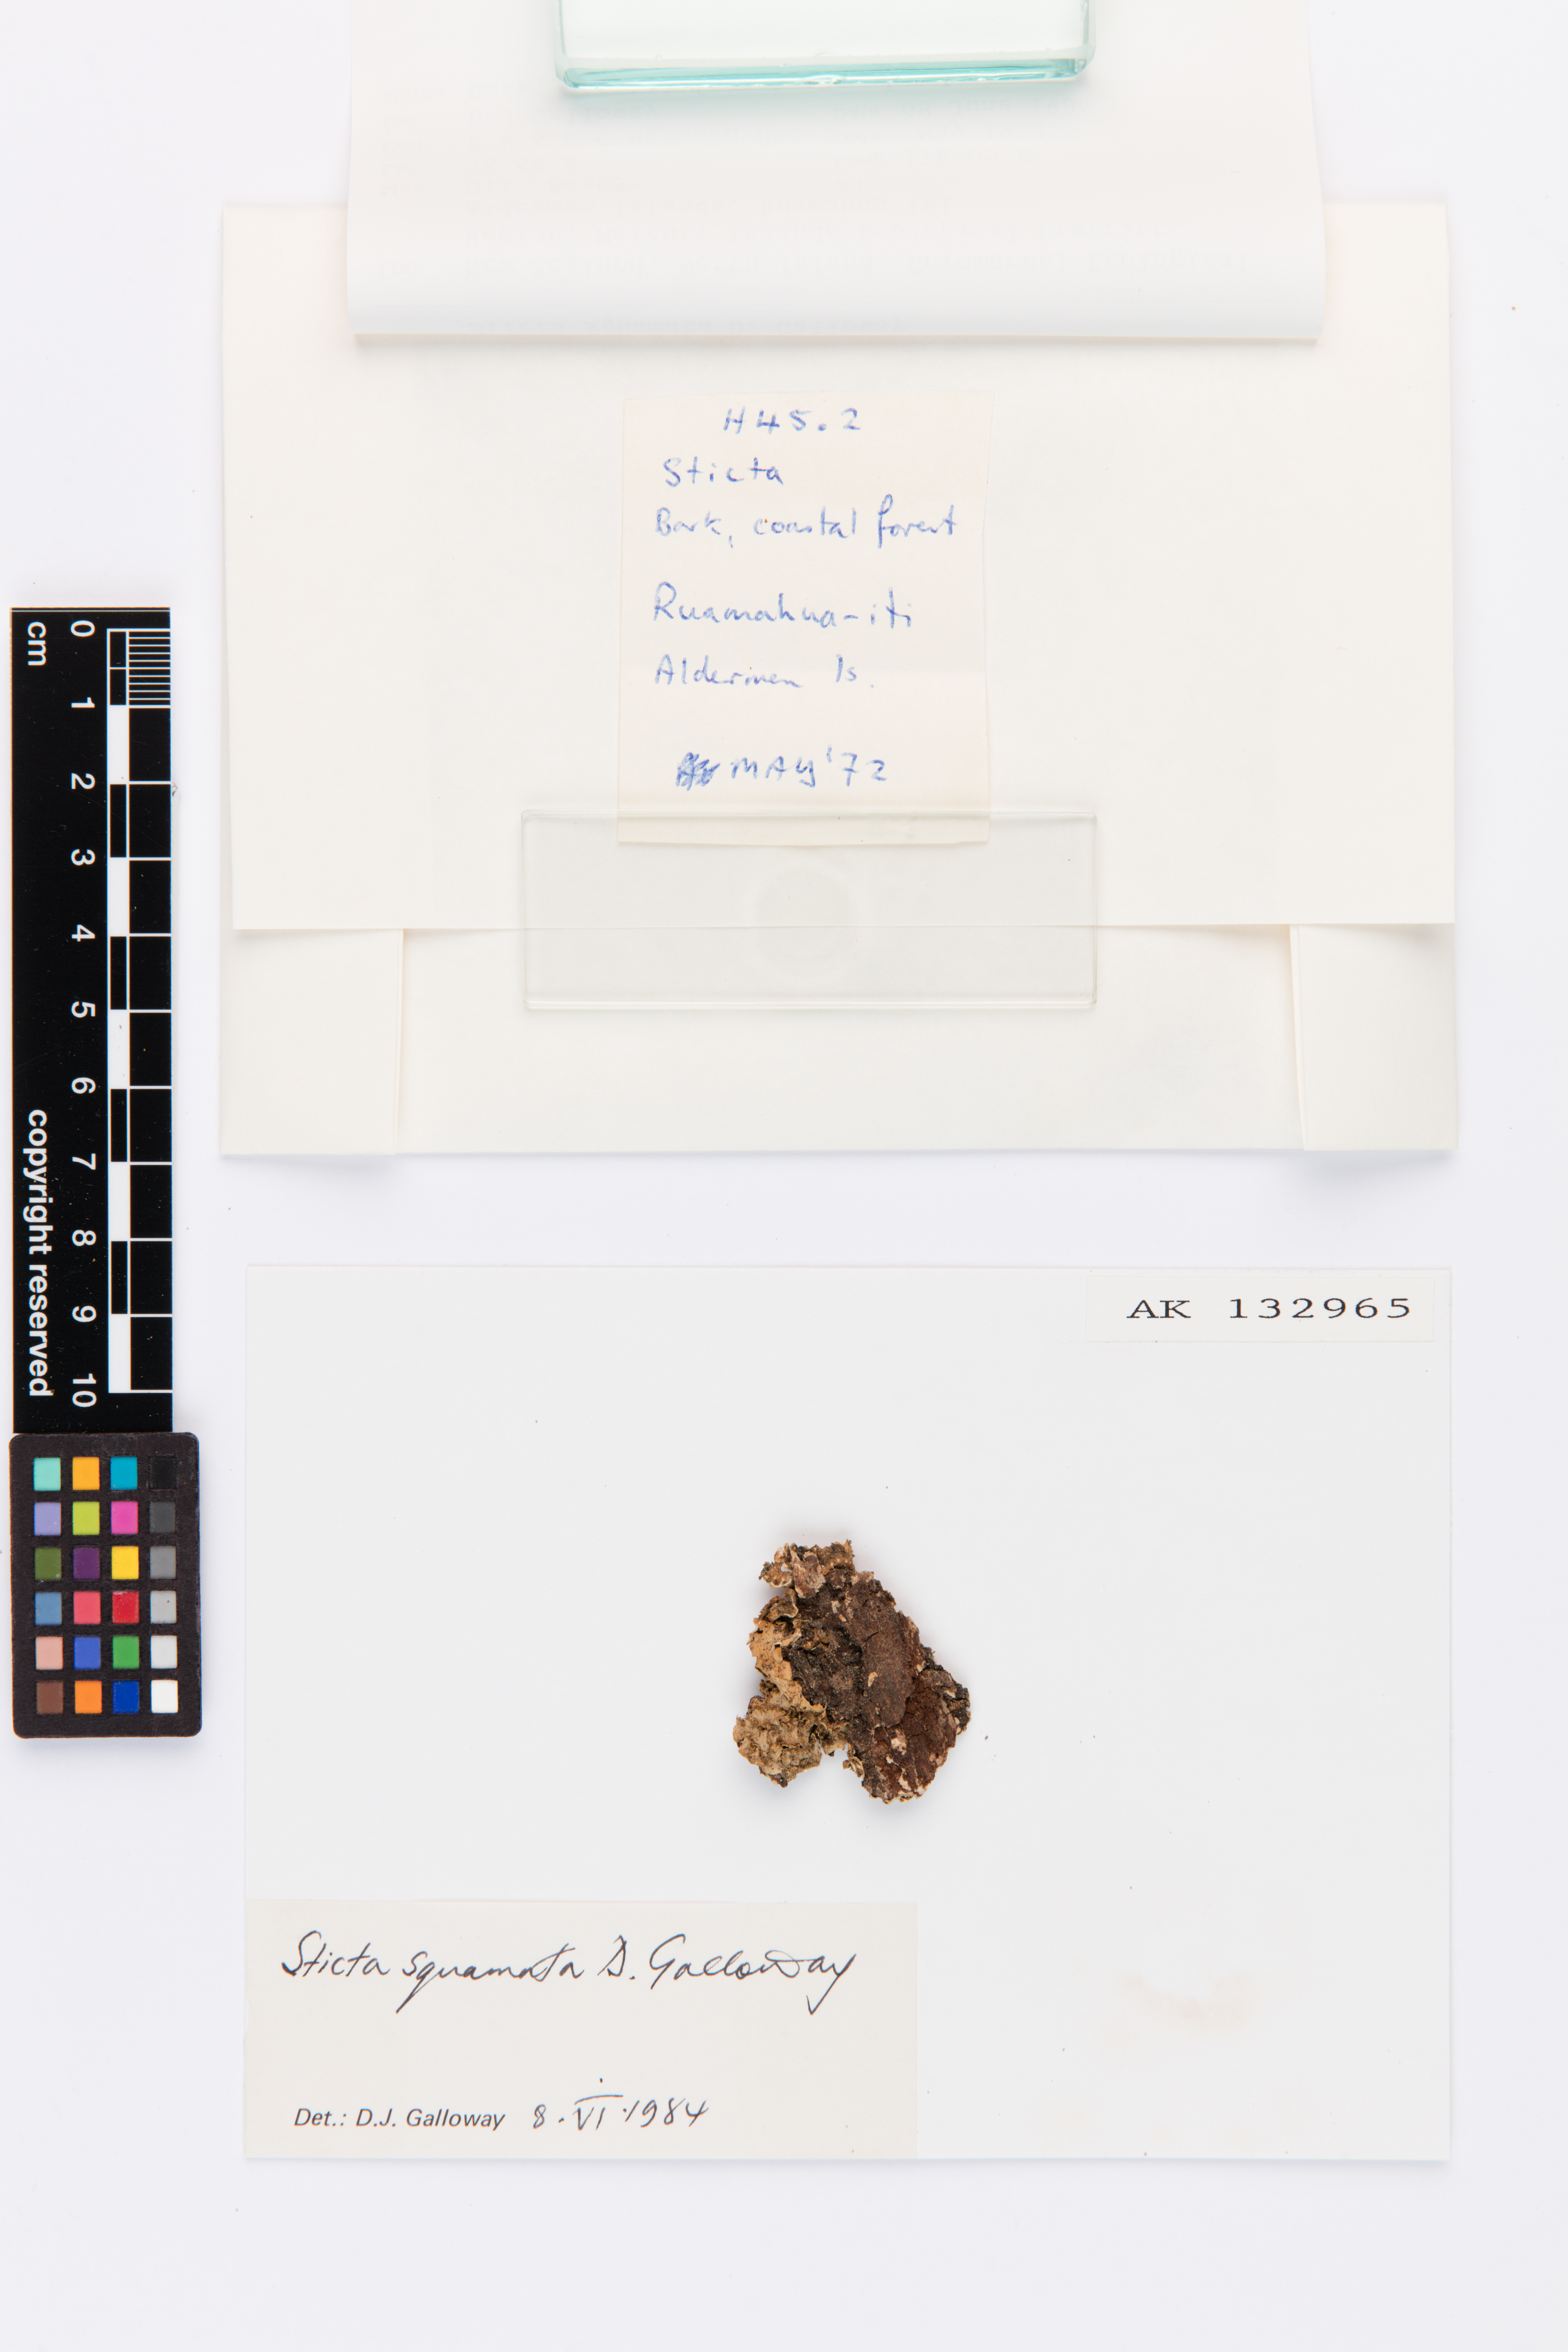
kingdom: Fungi
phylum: Ascomycota
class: Lecanoromycetes
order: Peltigerales
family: Lobariaceae
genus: Sticta
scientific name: Sticta squamata
